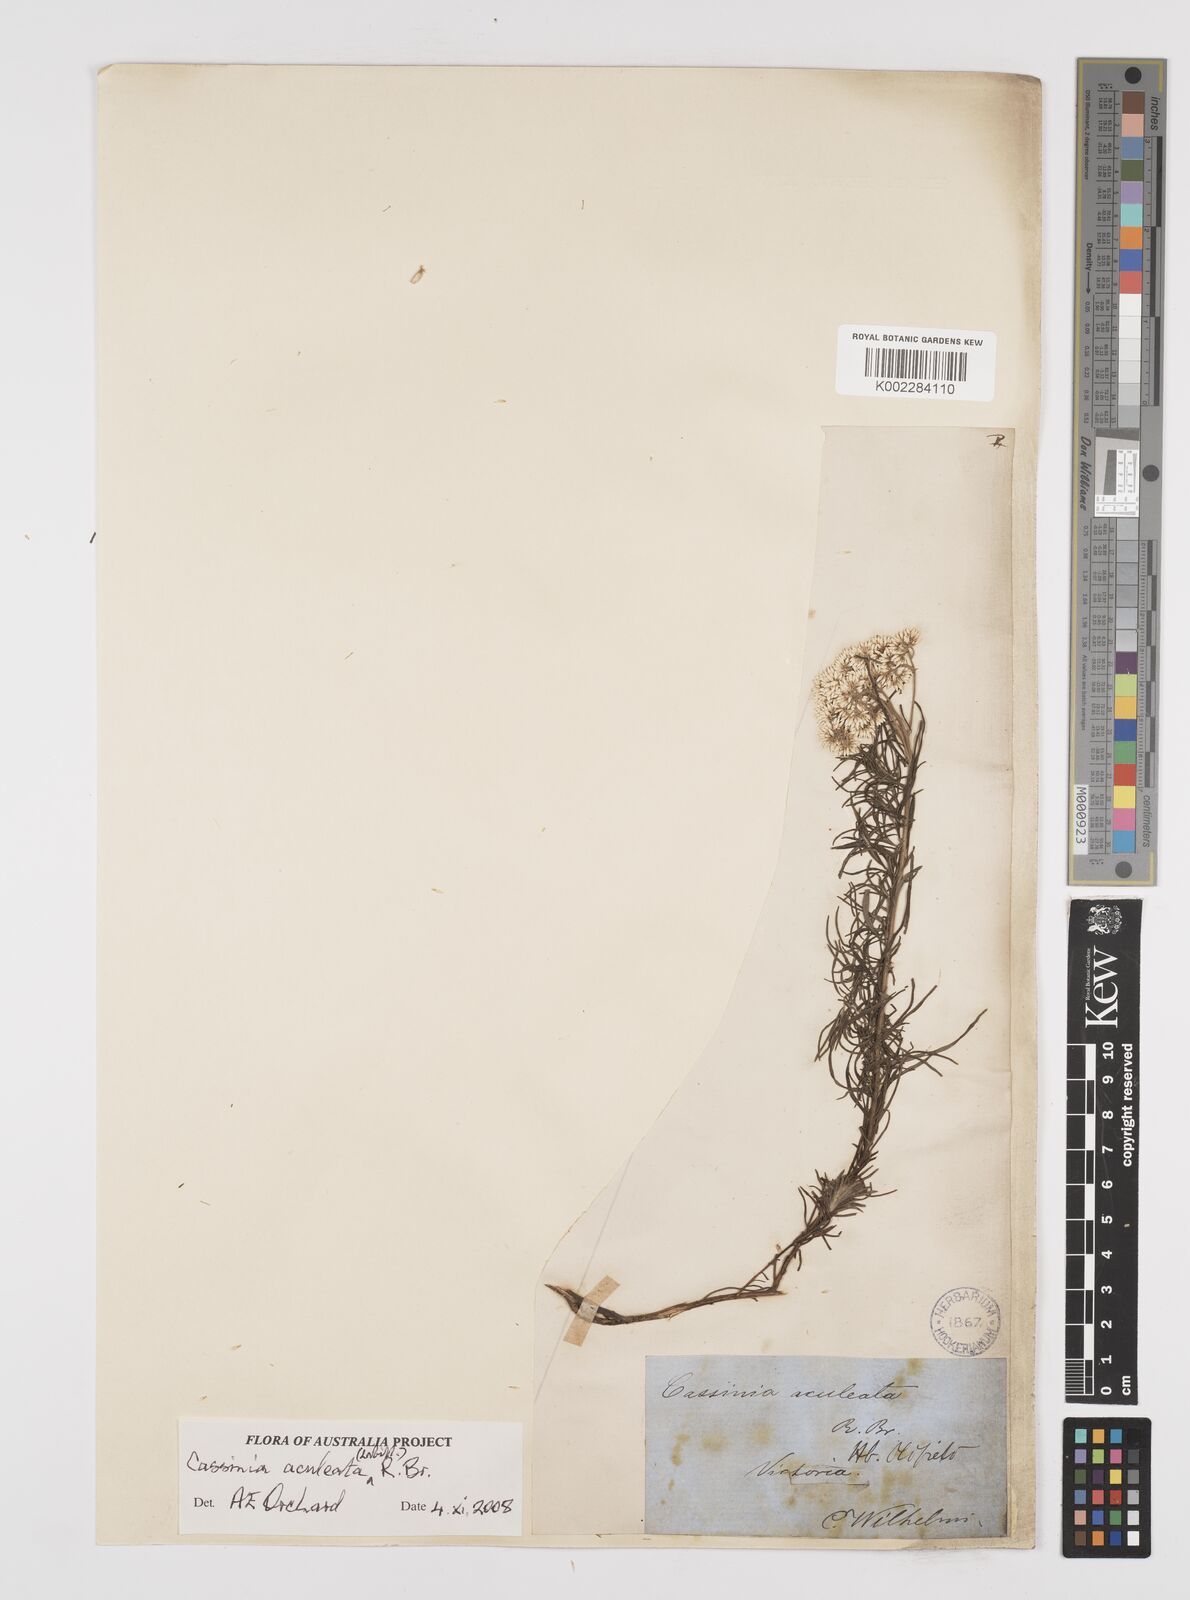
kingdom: Plantae
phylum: Tracheophyta
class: Magnoliopsida
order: Asterales
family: Asteraceae
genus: Cassinia
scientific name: Cassinia aculeata
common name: Australian tauhinu
